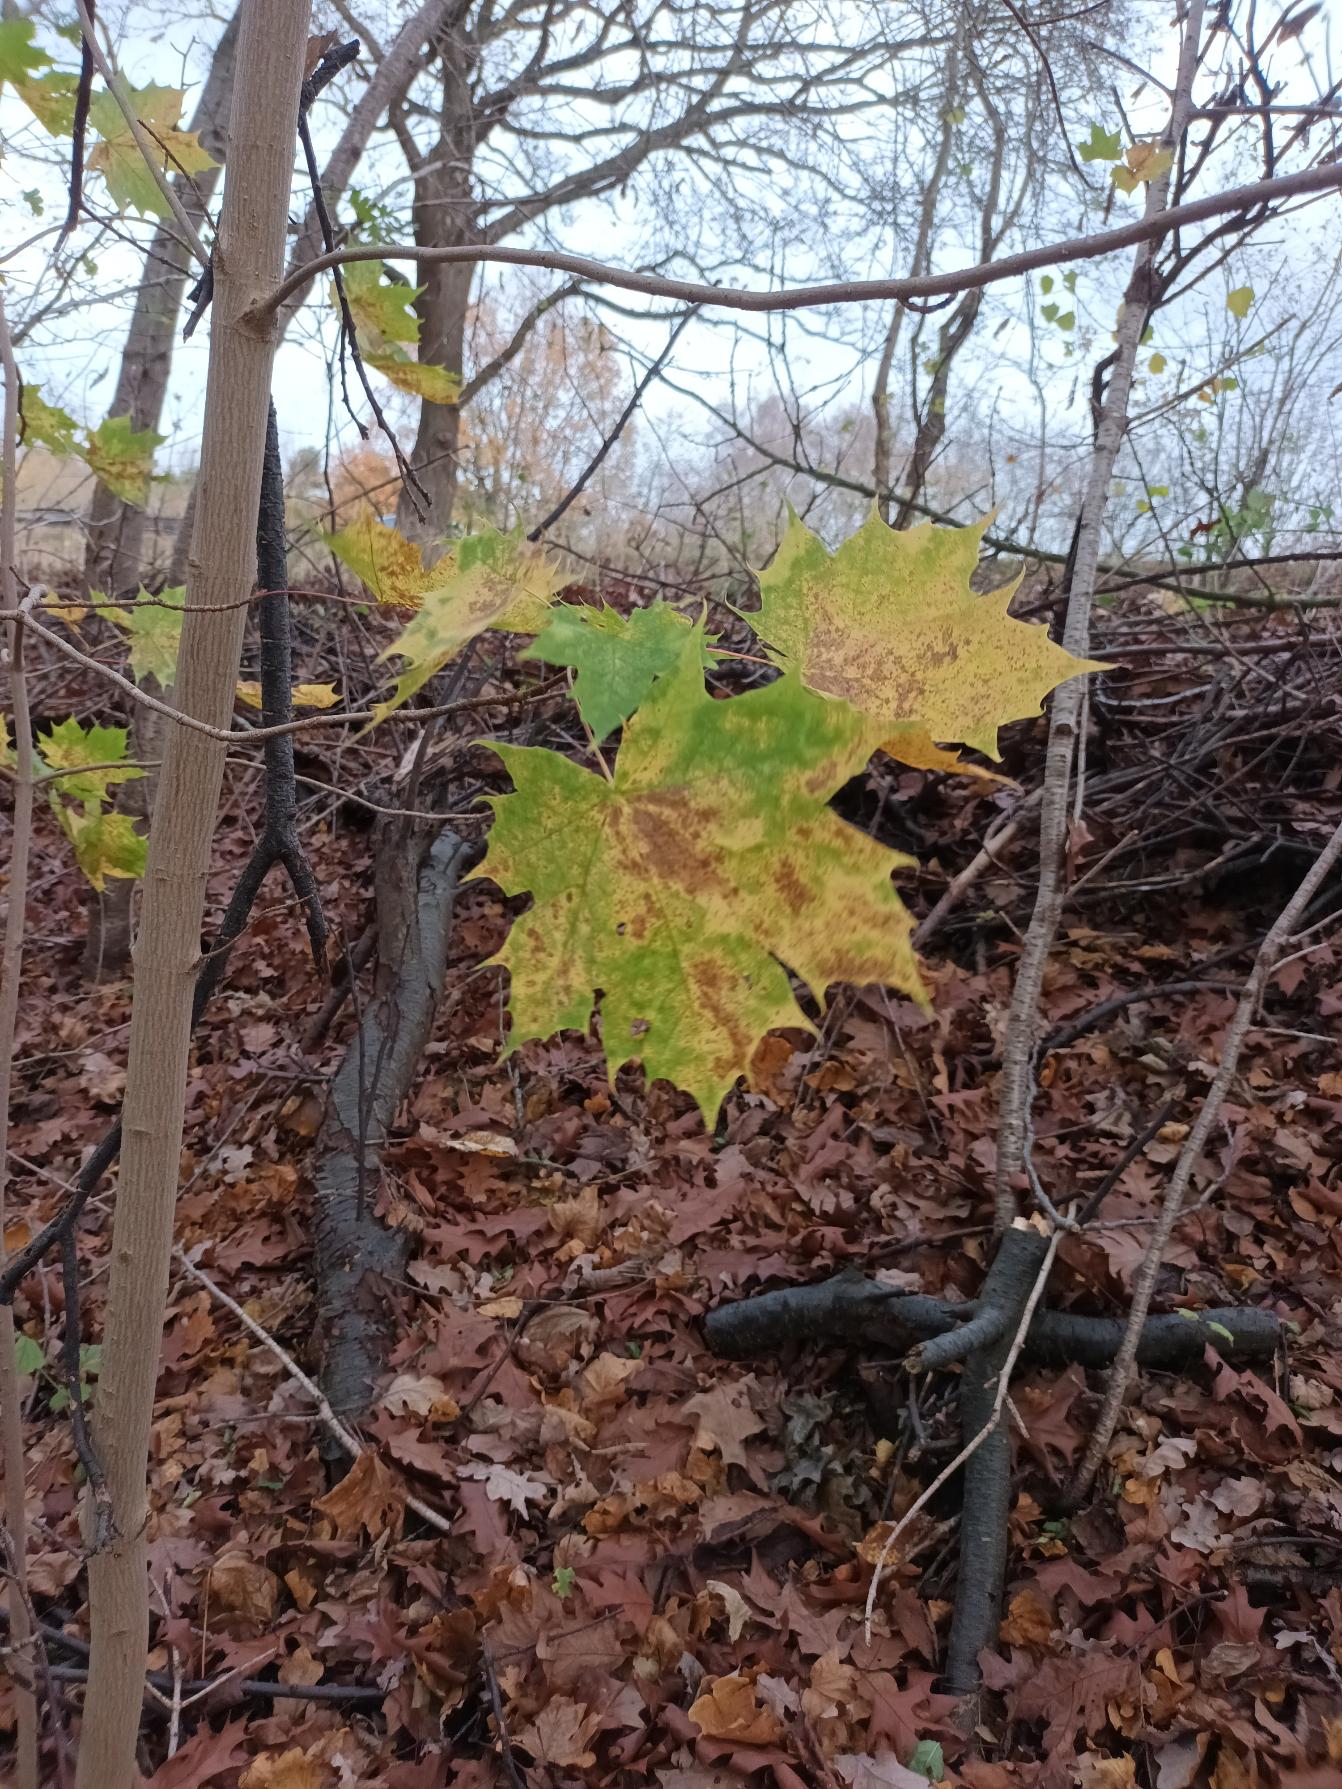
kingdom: Plantae
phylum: Tracheophyta
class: Magnoliopsida
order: Sapindales
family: Sapindaceae
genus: Acer
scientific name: Acer platanoides
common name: Spids-løn
